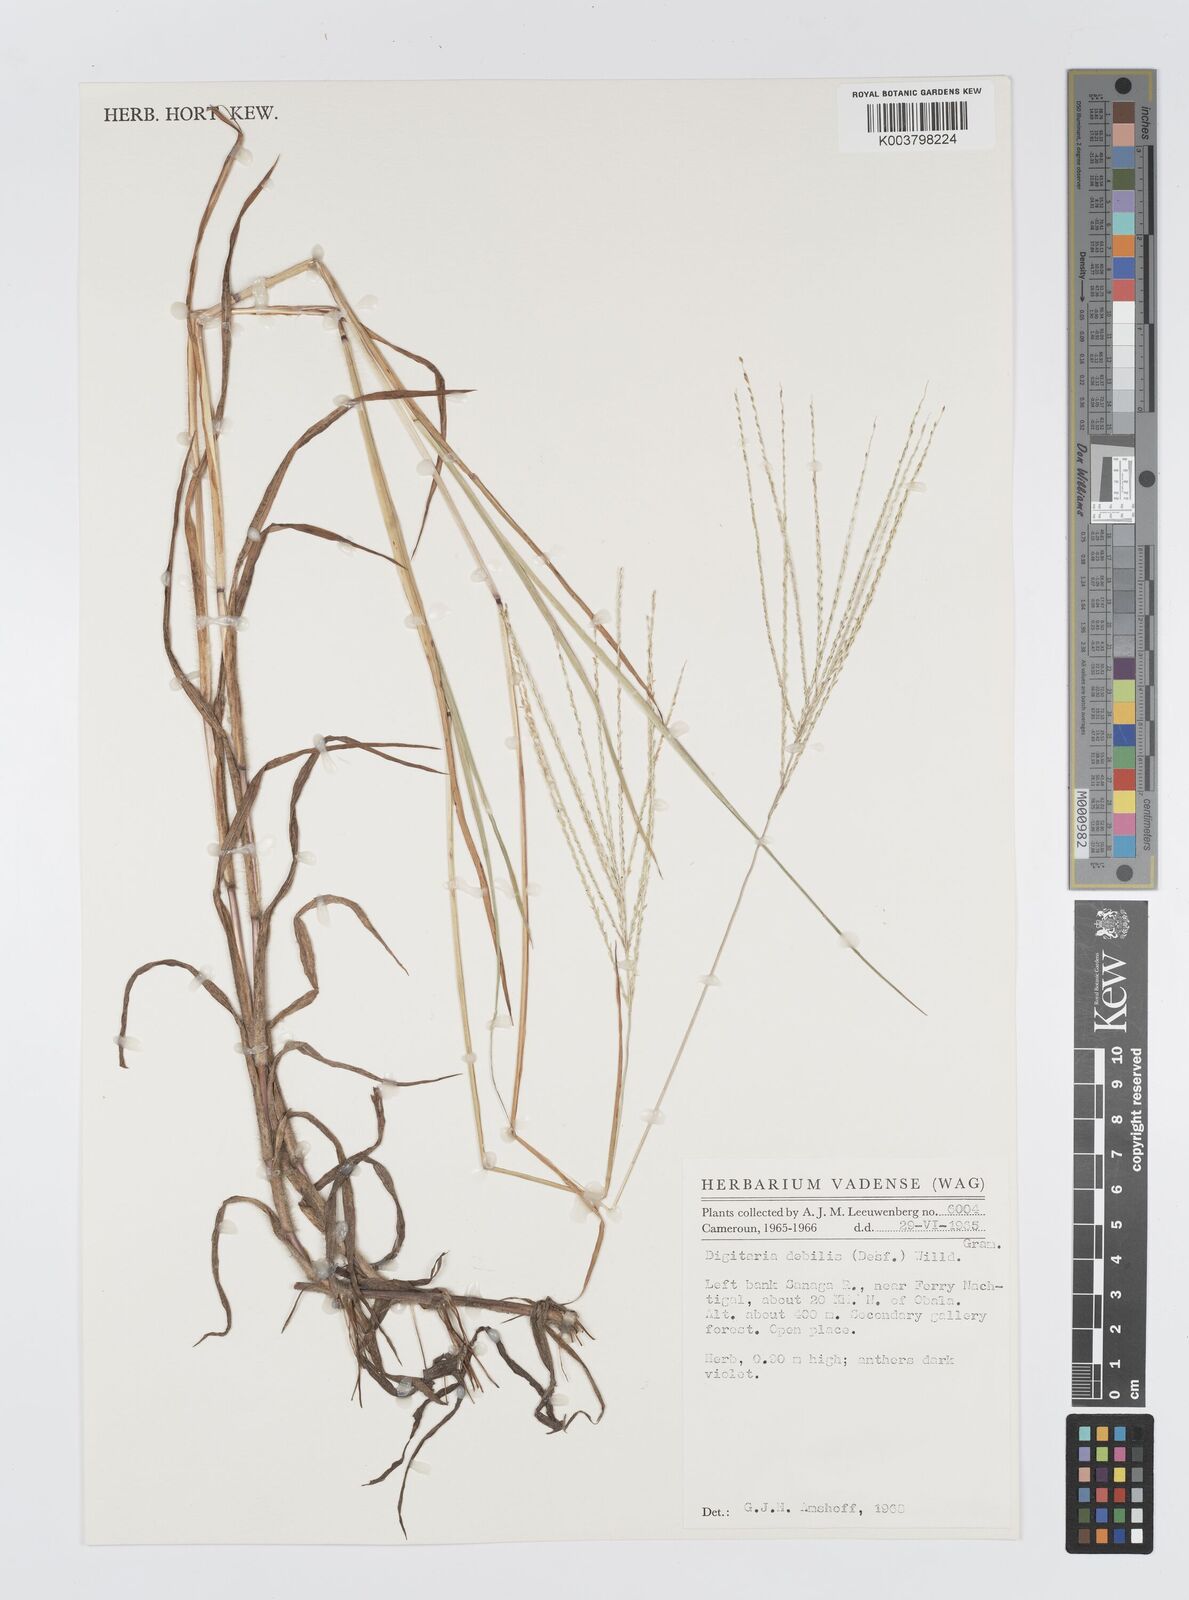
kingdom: Plantae
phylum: Tracheophyta
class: Liliopsida
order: Poales
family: Poaceae
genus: Digitaria
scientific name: Digitaria debilis
